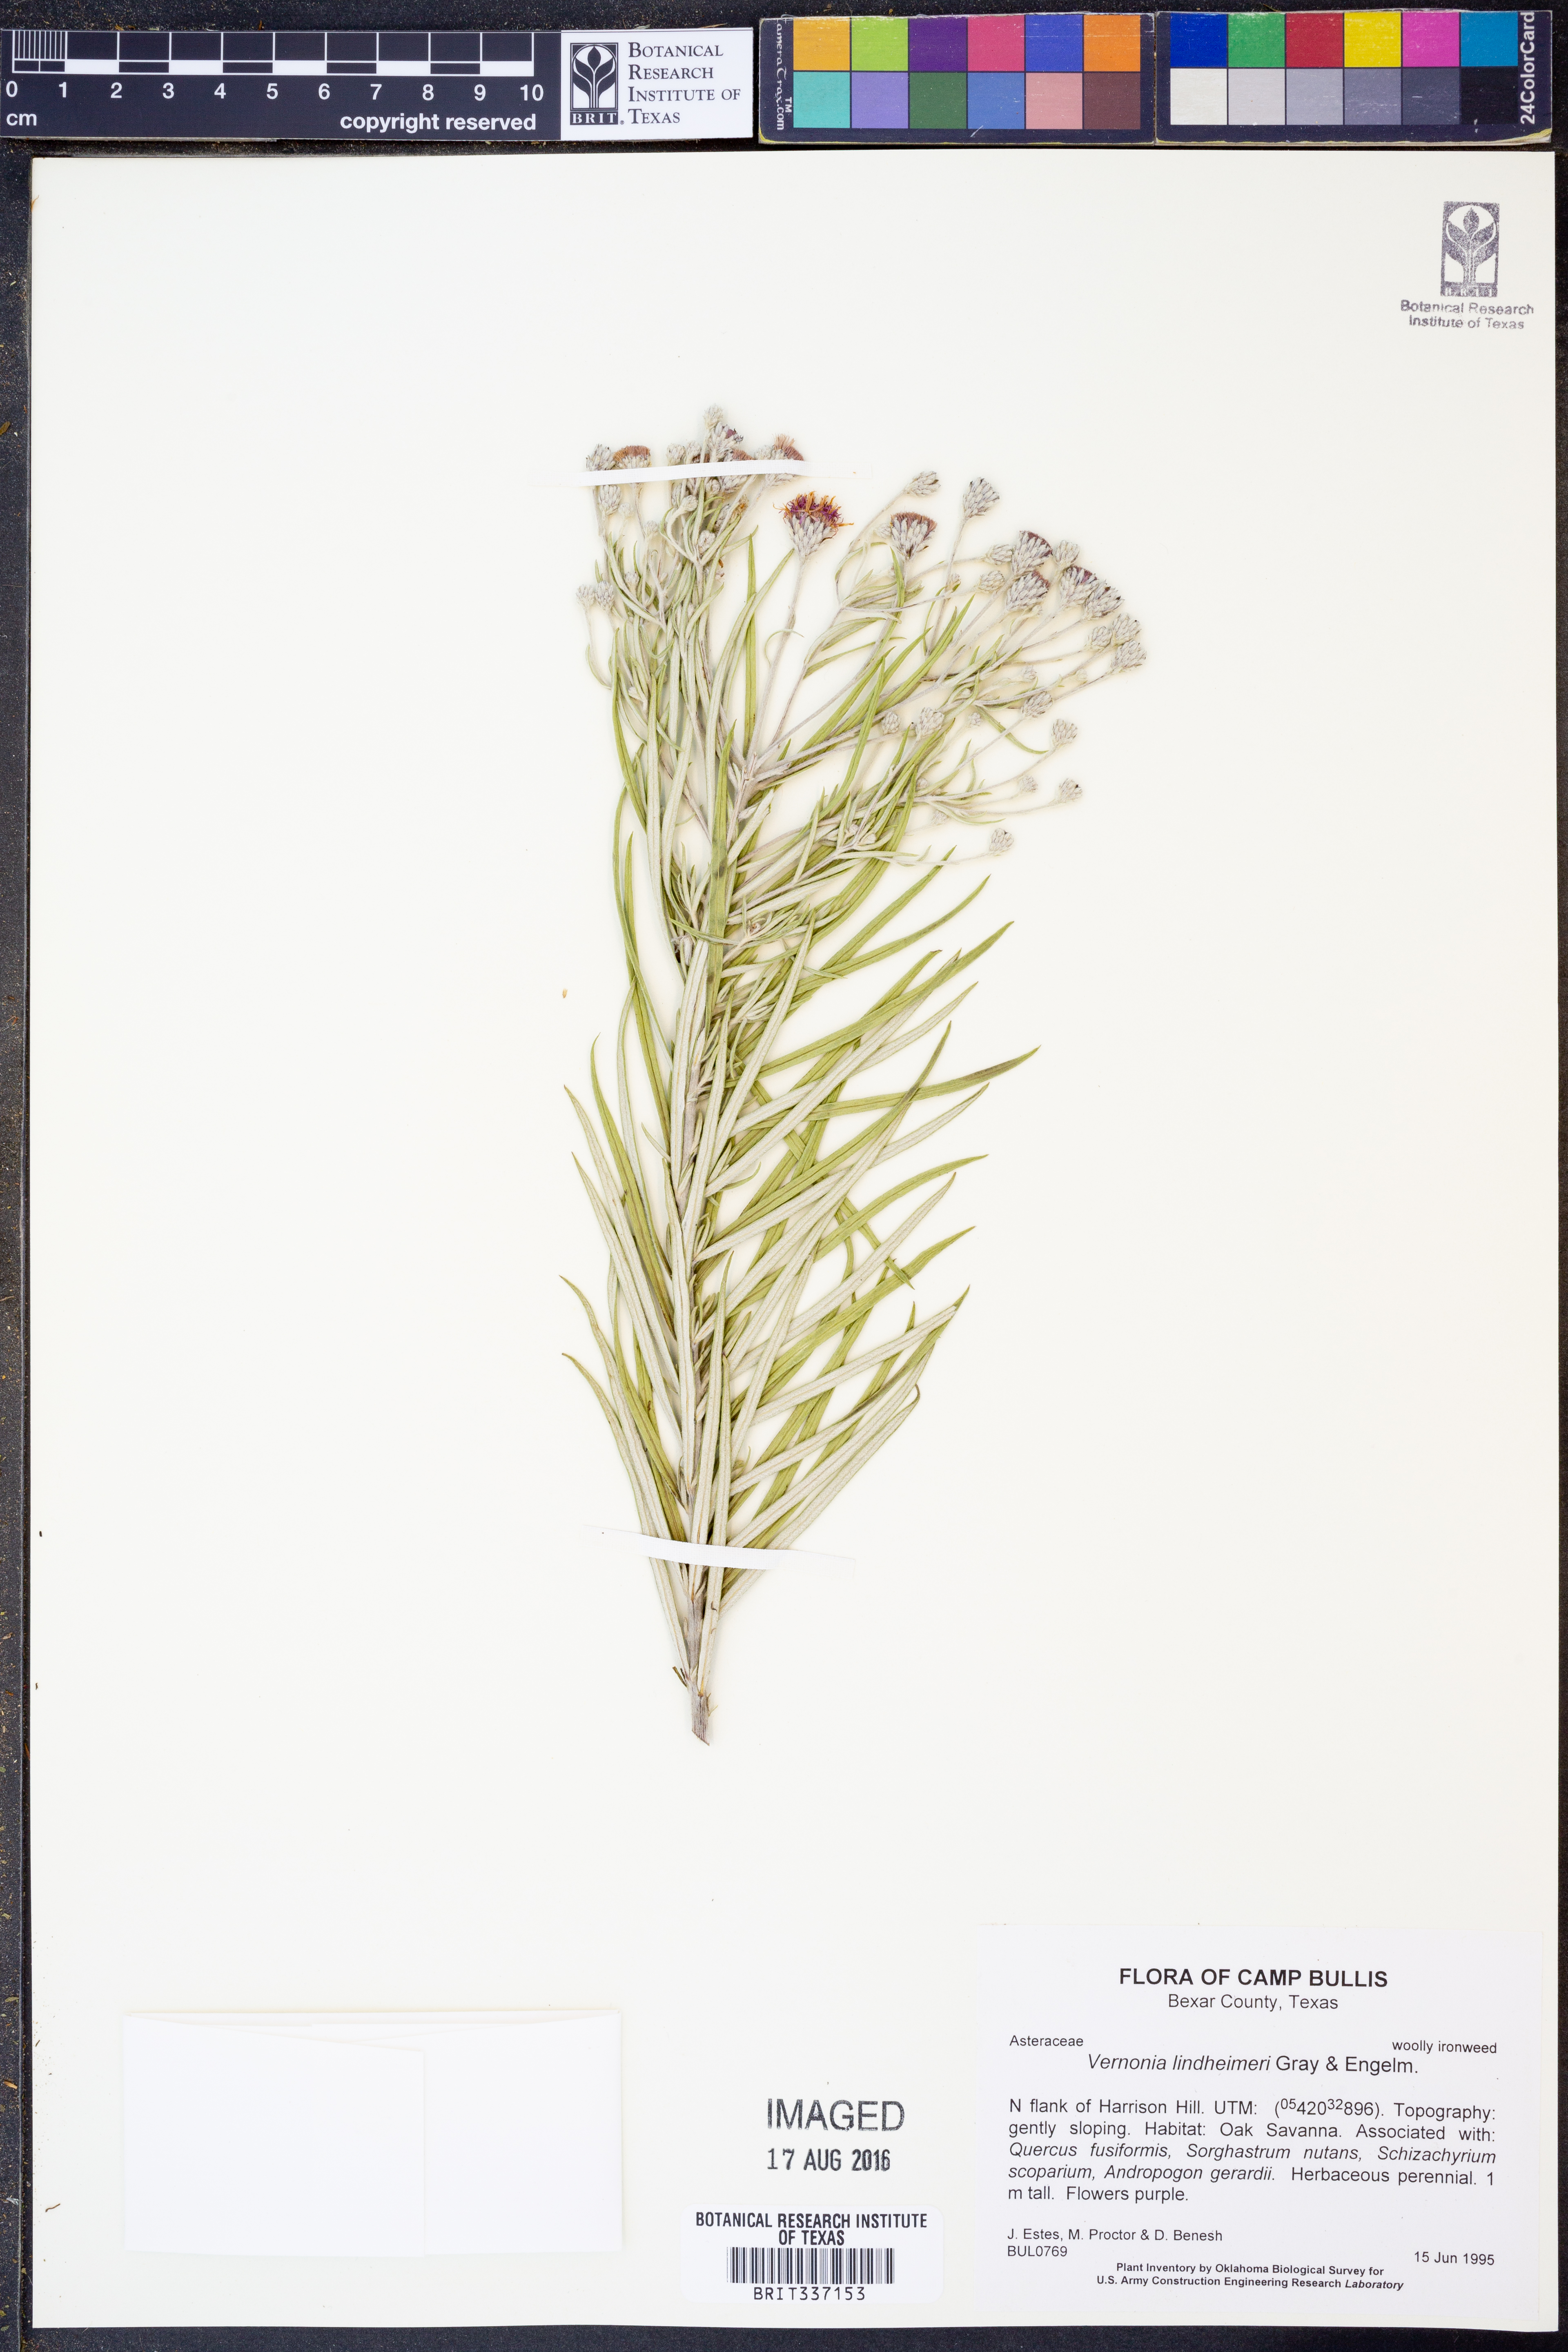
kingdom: Plantae
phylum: Tracheophyta
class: Magnoliopsida
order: Asterales
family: Asteraceae
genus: Vernonia
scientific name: Vernonia lindheimeri
